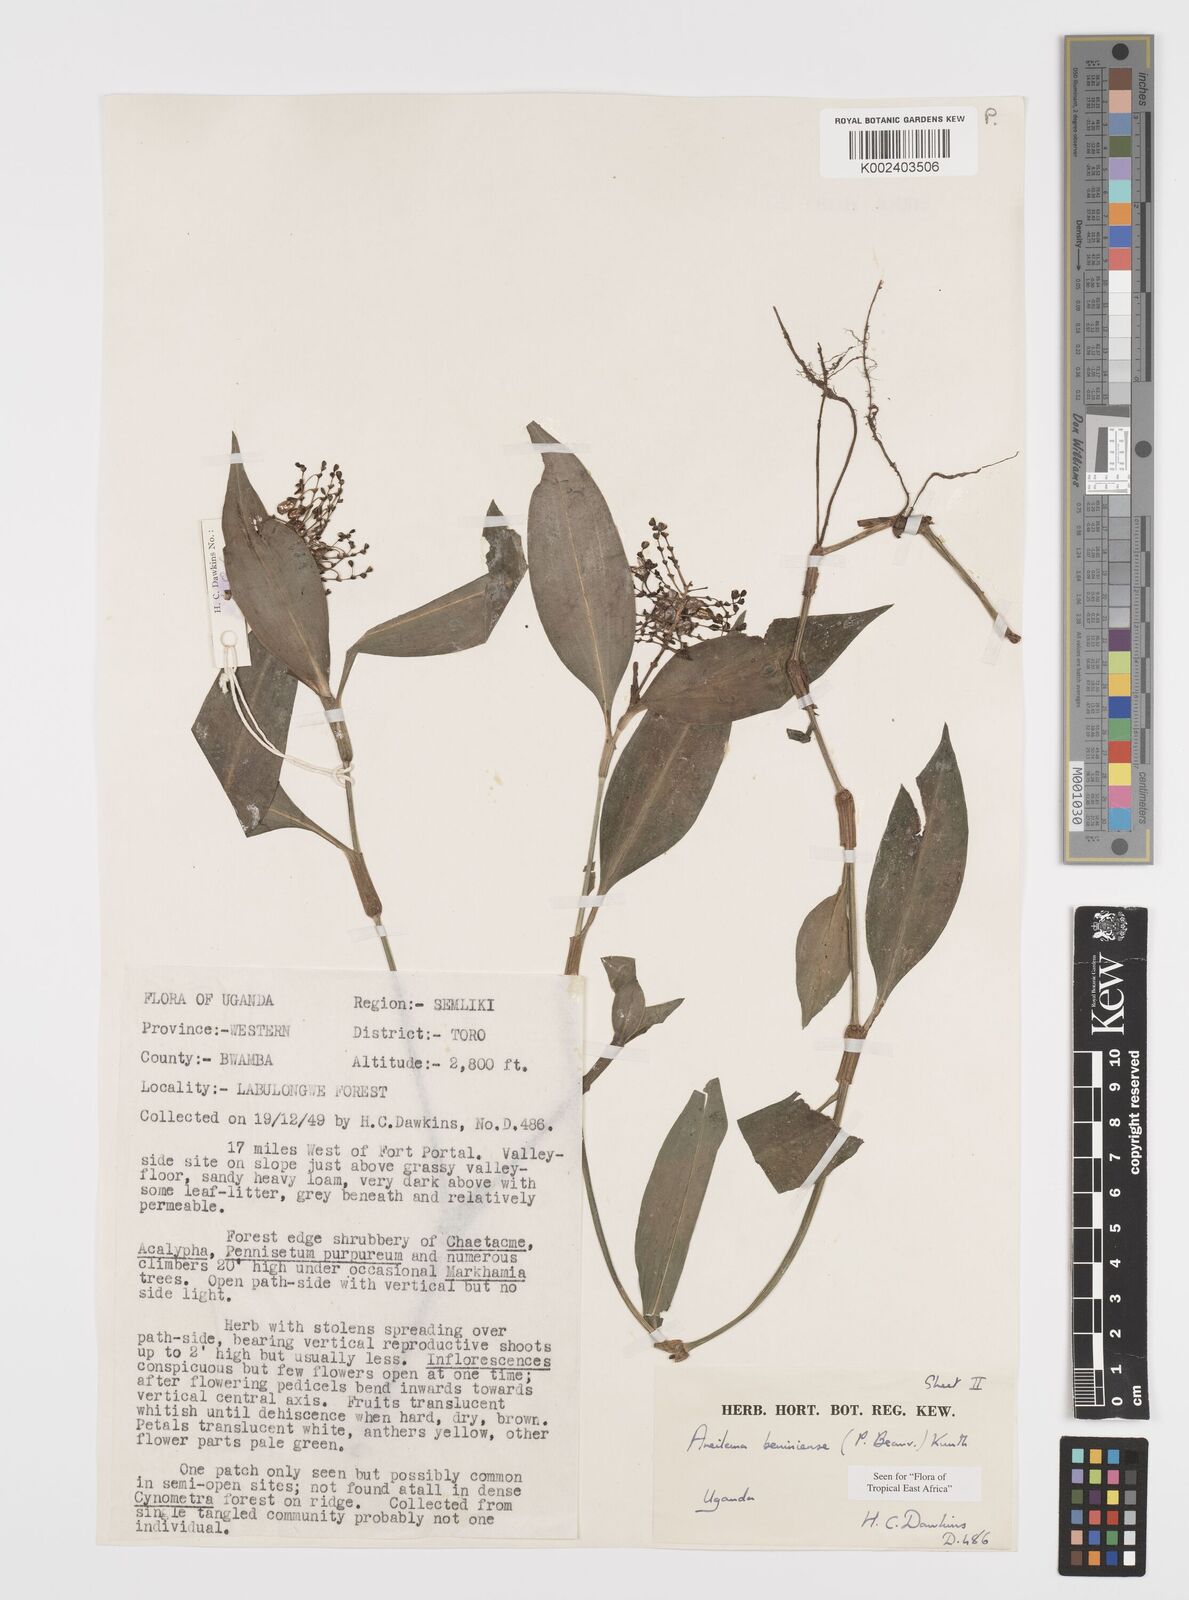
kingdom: Plantae
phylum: Tracheophyta
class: Liliopsida
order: Commelinales
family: Commelinaceae
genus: Aneilema
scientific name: Aneilema beniniense
